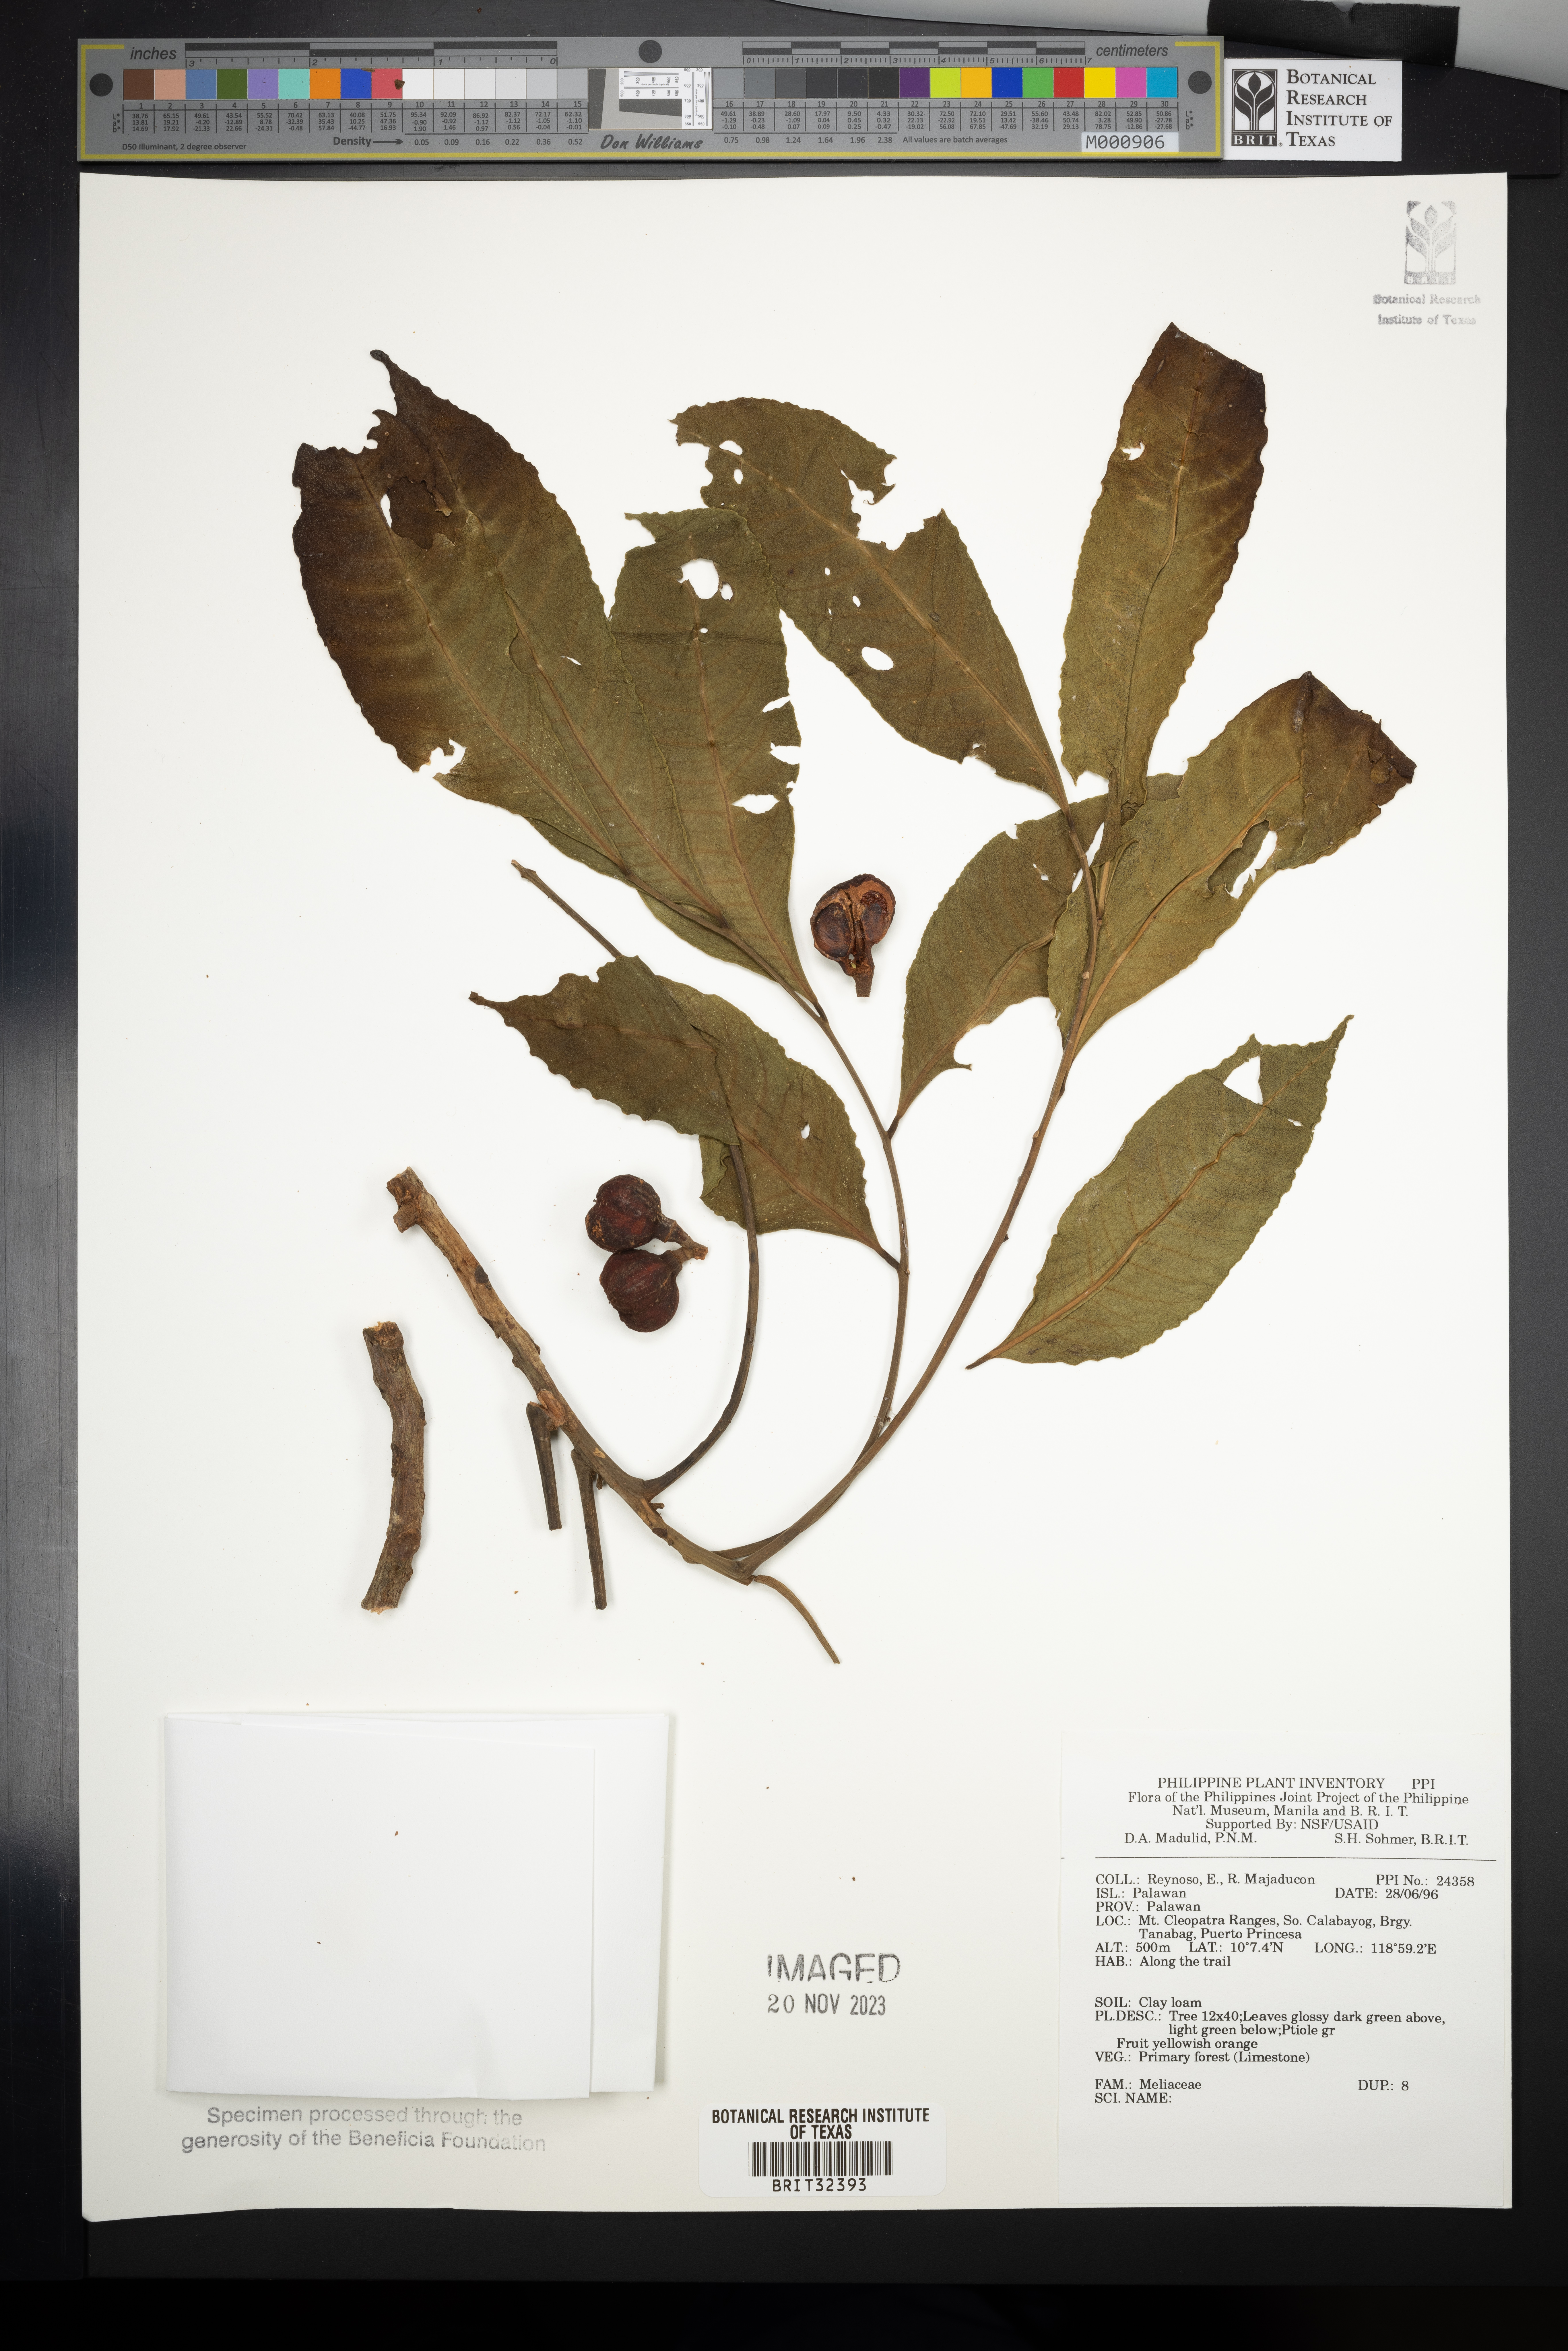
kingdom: Plantae
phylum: Tracheophyta
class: Magnoliopsida
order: Sapindales
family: Meliaceae
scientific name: Meliaceae
